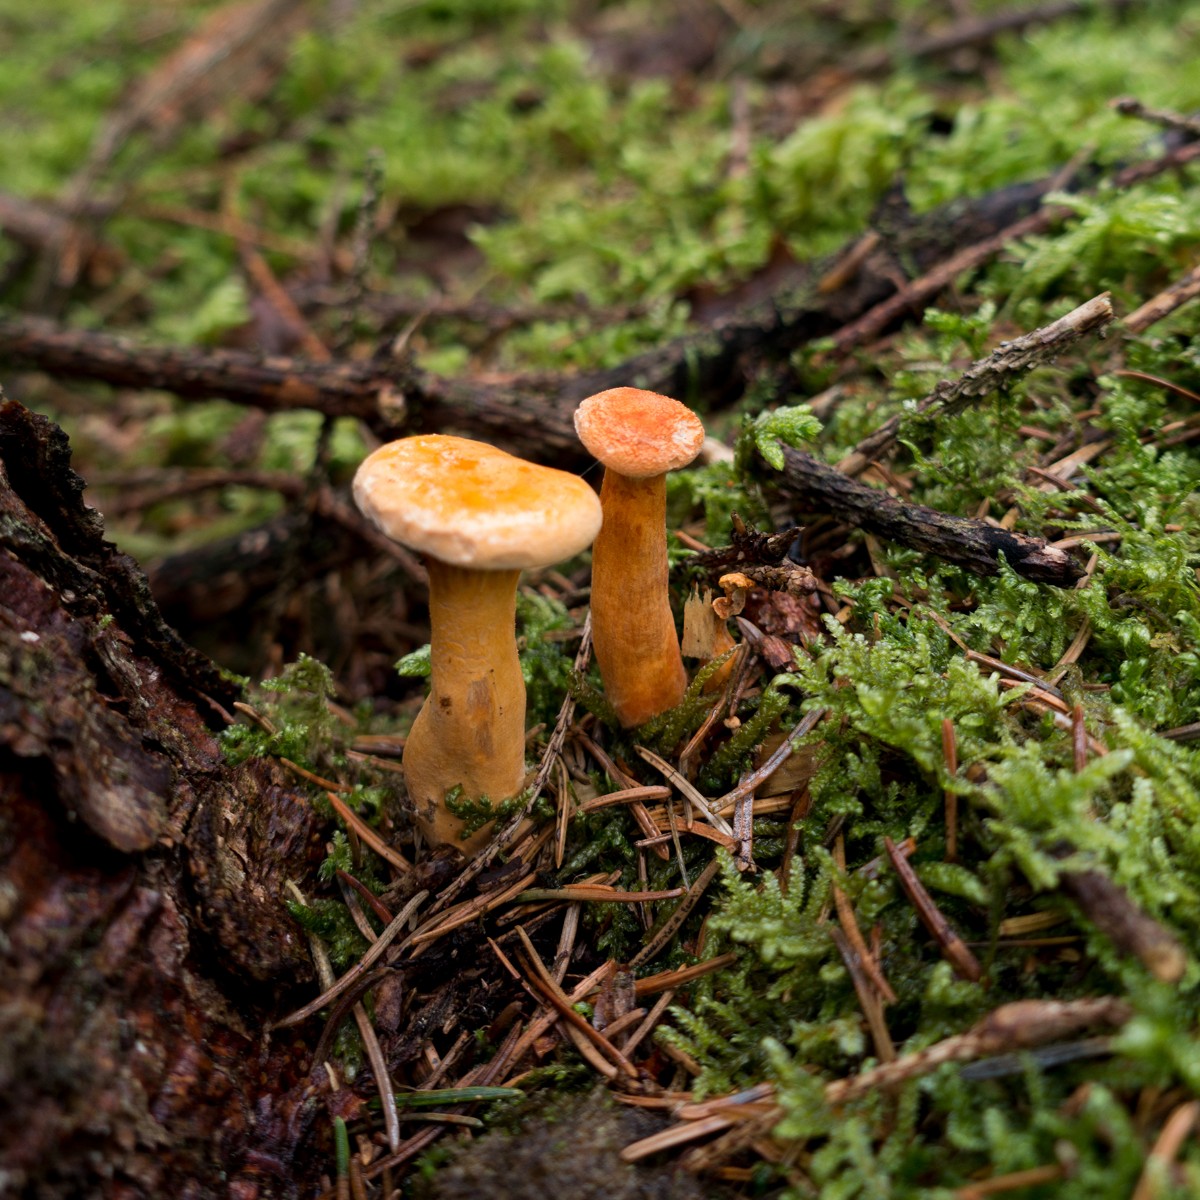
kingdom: Fungi
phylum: Basidiomycota
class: Agaricomycetes
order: Boletales
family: Hygrophoropsidaceae
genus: Hygrophoropsis
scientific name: Hygrophoropsis aurantiaca
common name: almindelig orangekantarel
